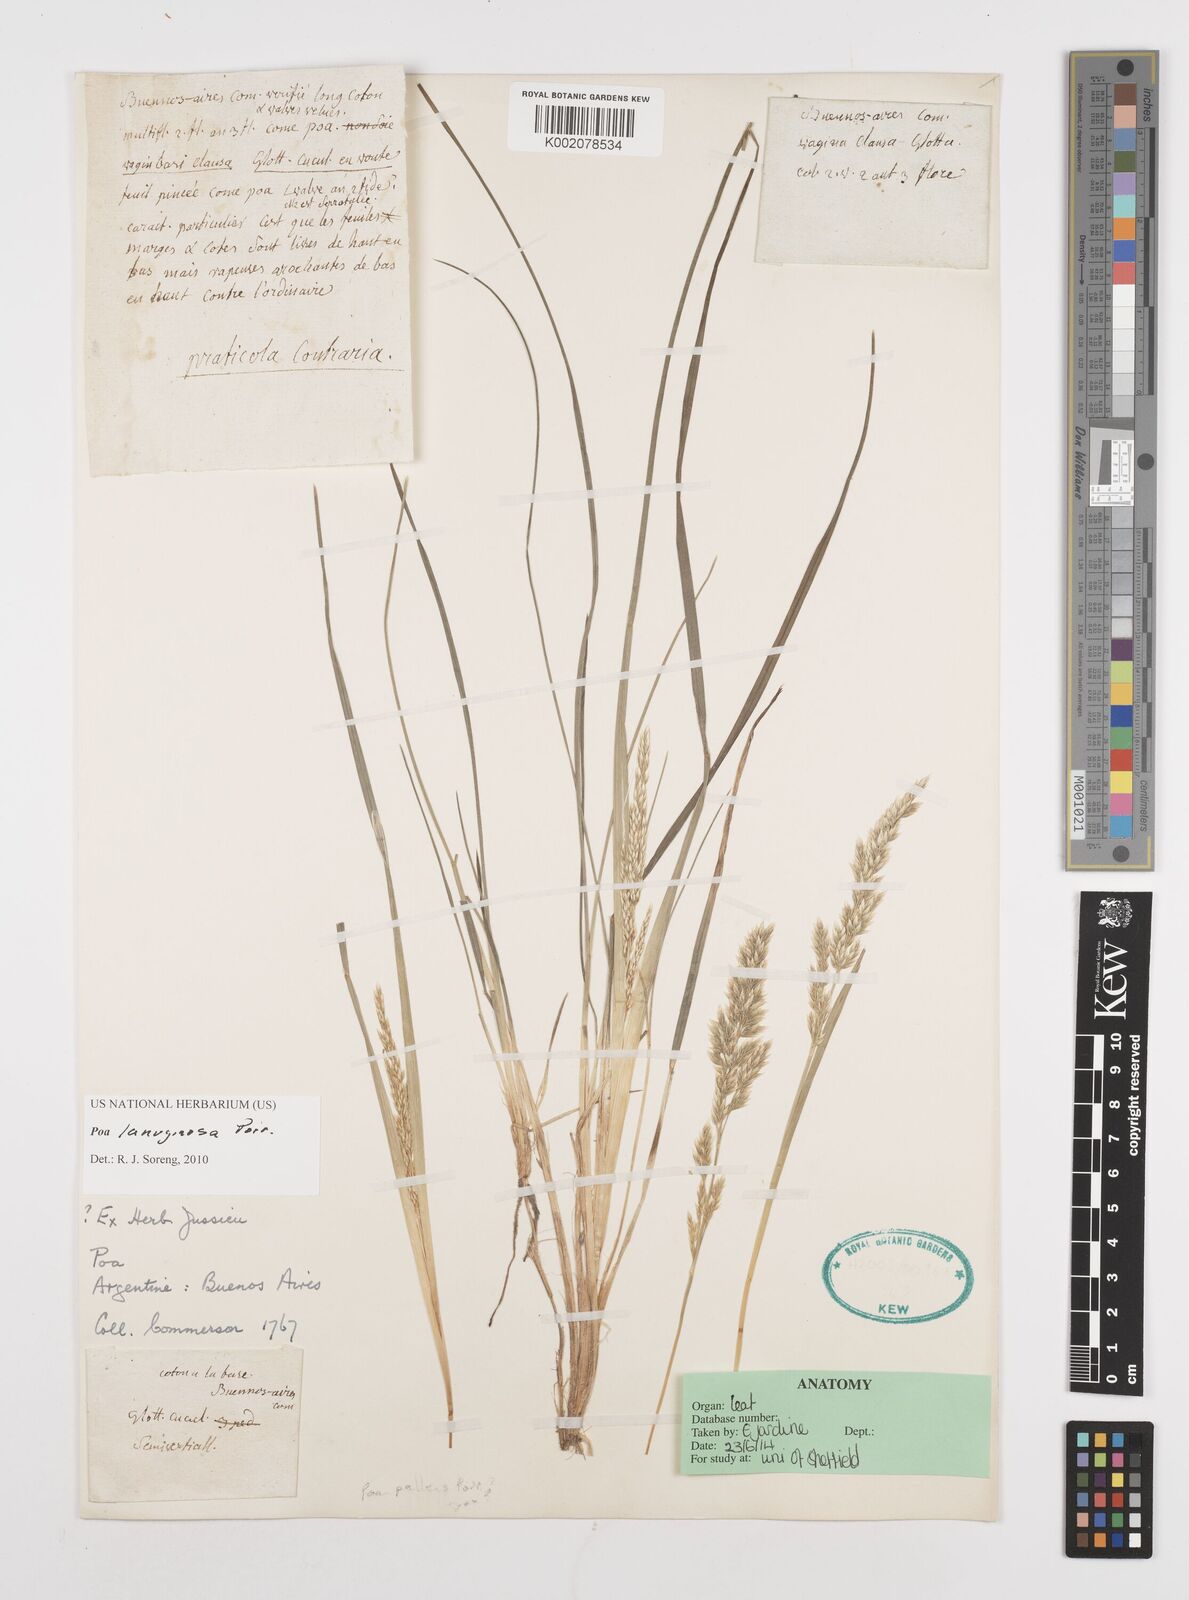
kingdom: Plantae
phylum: Tracheophyta
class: Liliopsida
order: Poales
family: Poaceae
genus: Poa
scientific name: Poa lanuginosa
